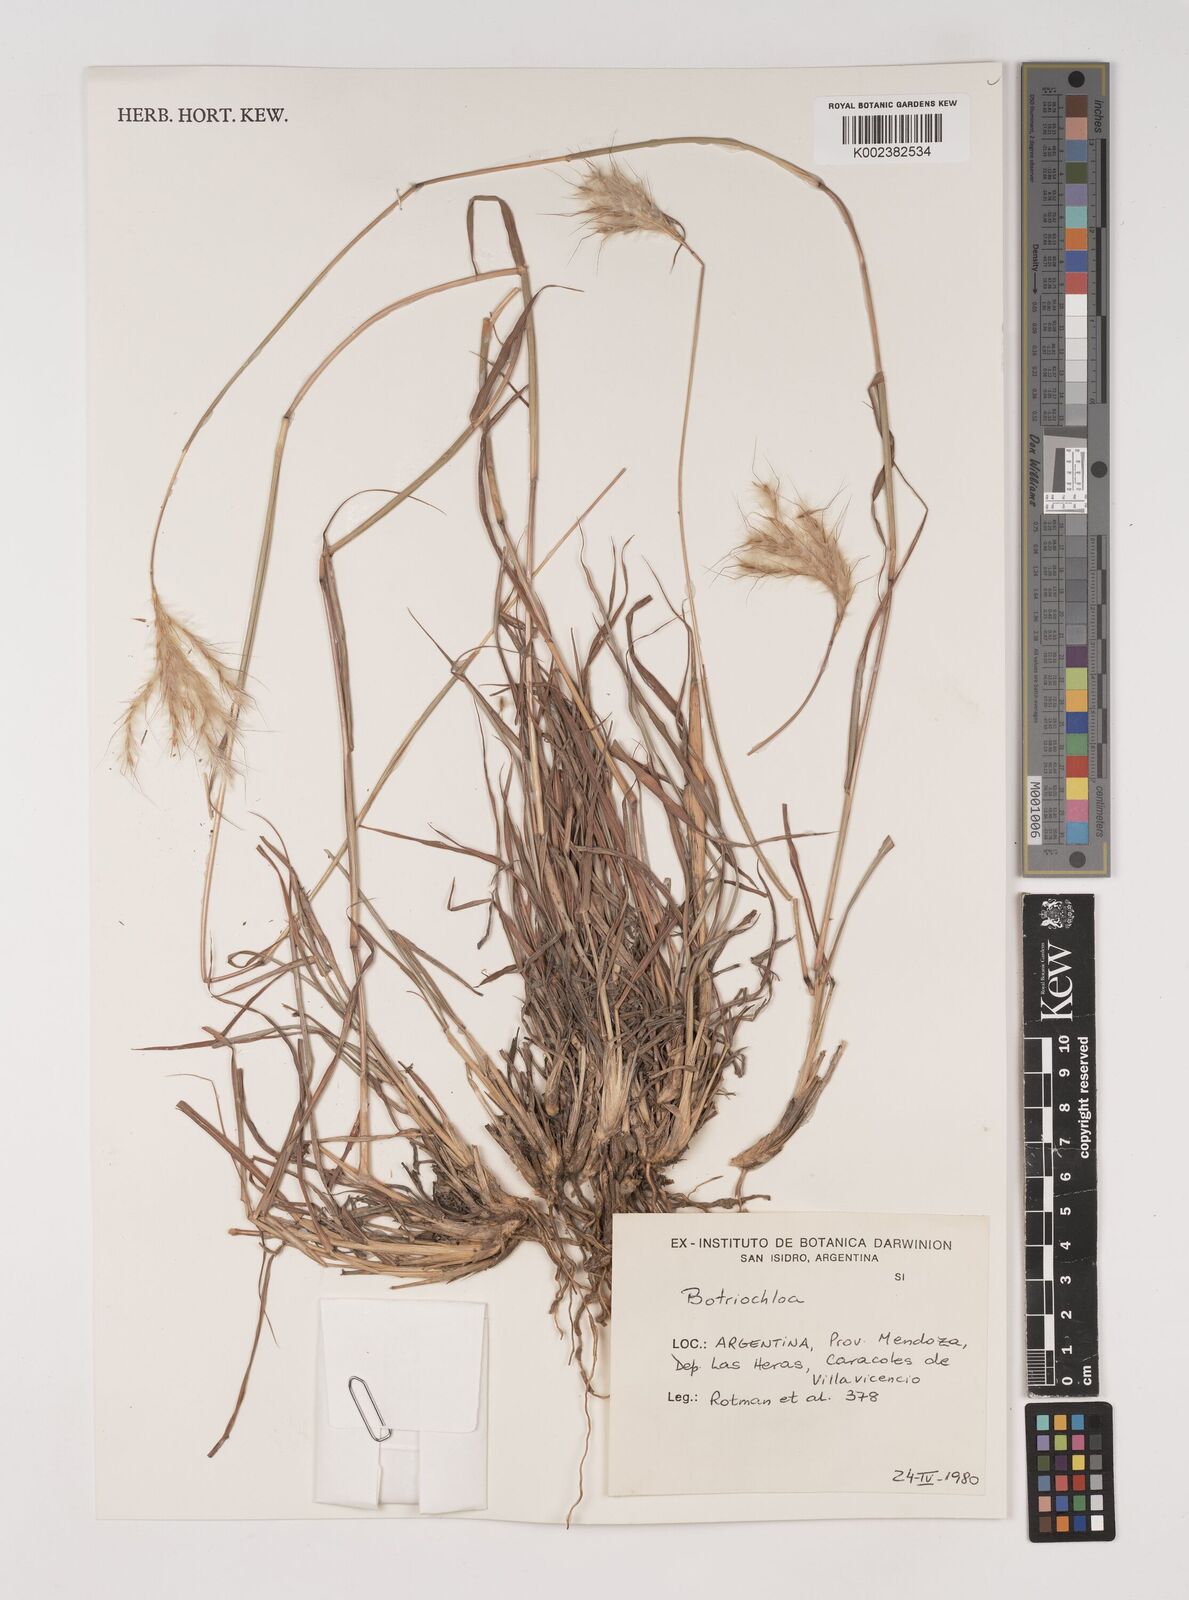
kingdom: Plantae
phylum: Tracheophyta
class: Liliopsida
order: Poales
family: Poaceae
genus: Bothriochloa
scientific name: Bothriochloa springfieldii
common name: Springfield bluestem
